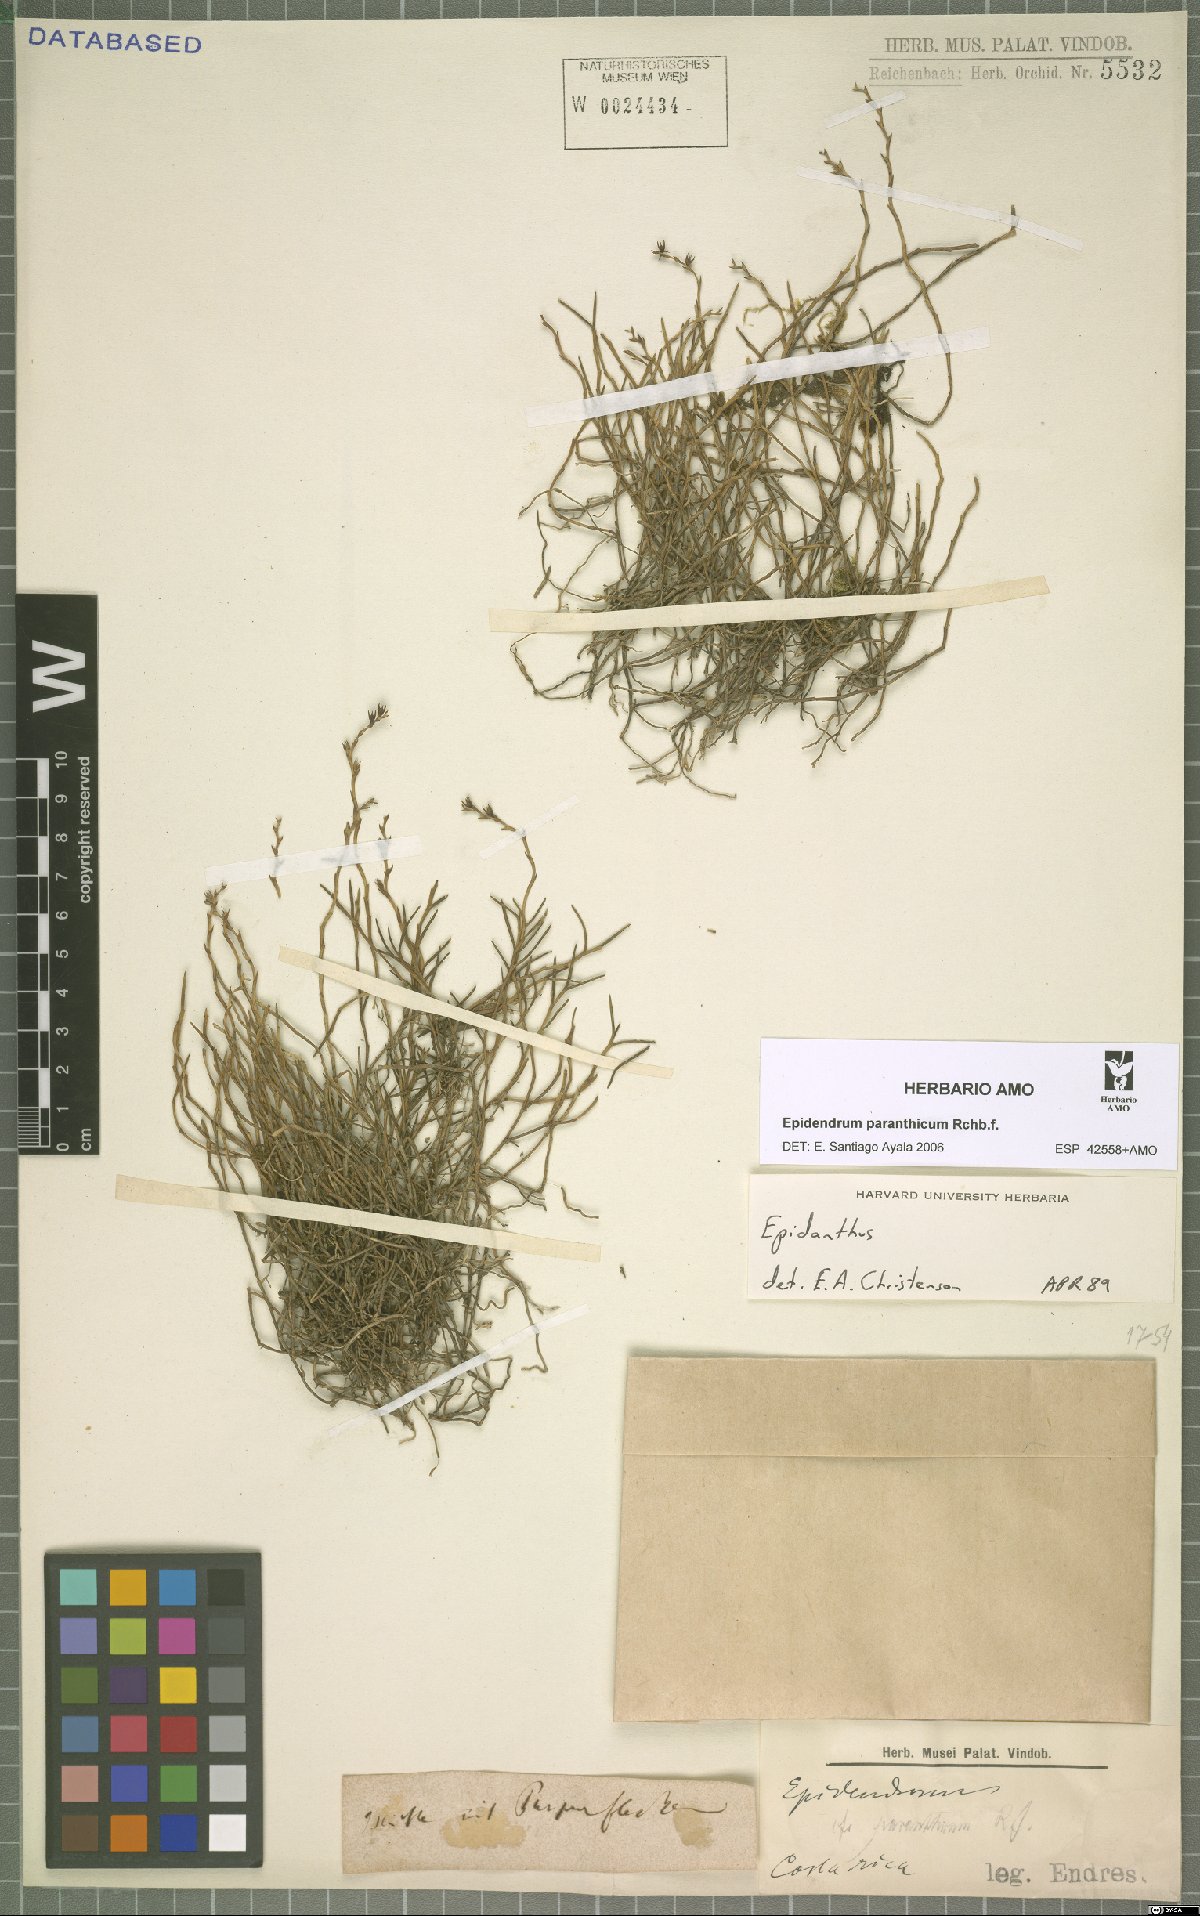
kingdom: Plantae
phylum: Tracheophyta
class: Liliopsida
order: Asparagales
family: Orchidaceae
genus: Epidendrum
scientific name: Epidendrum paranthicum
